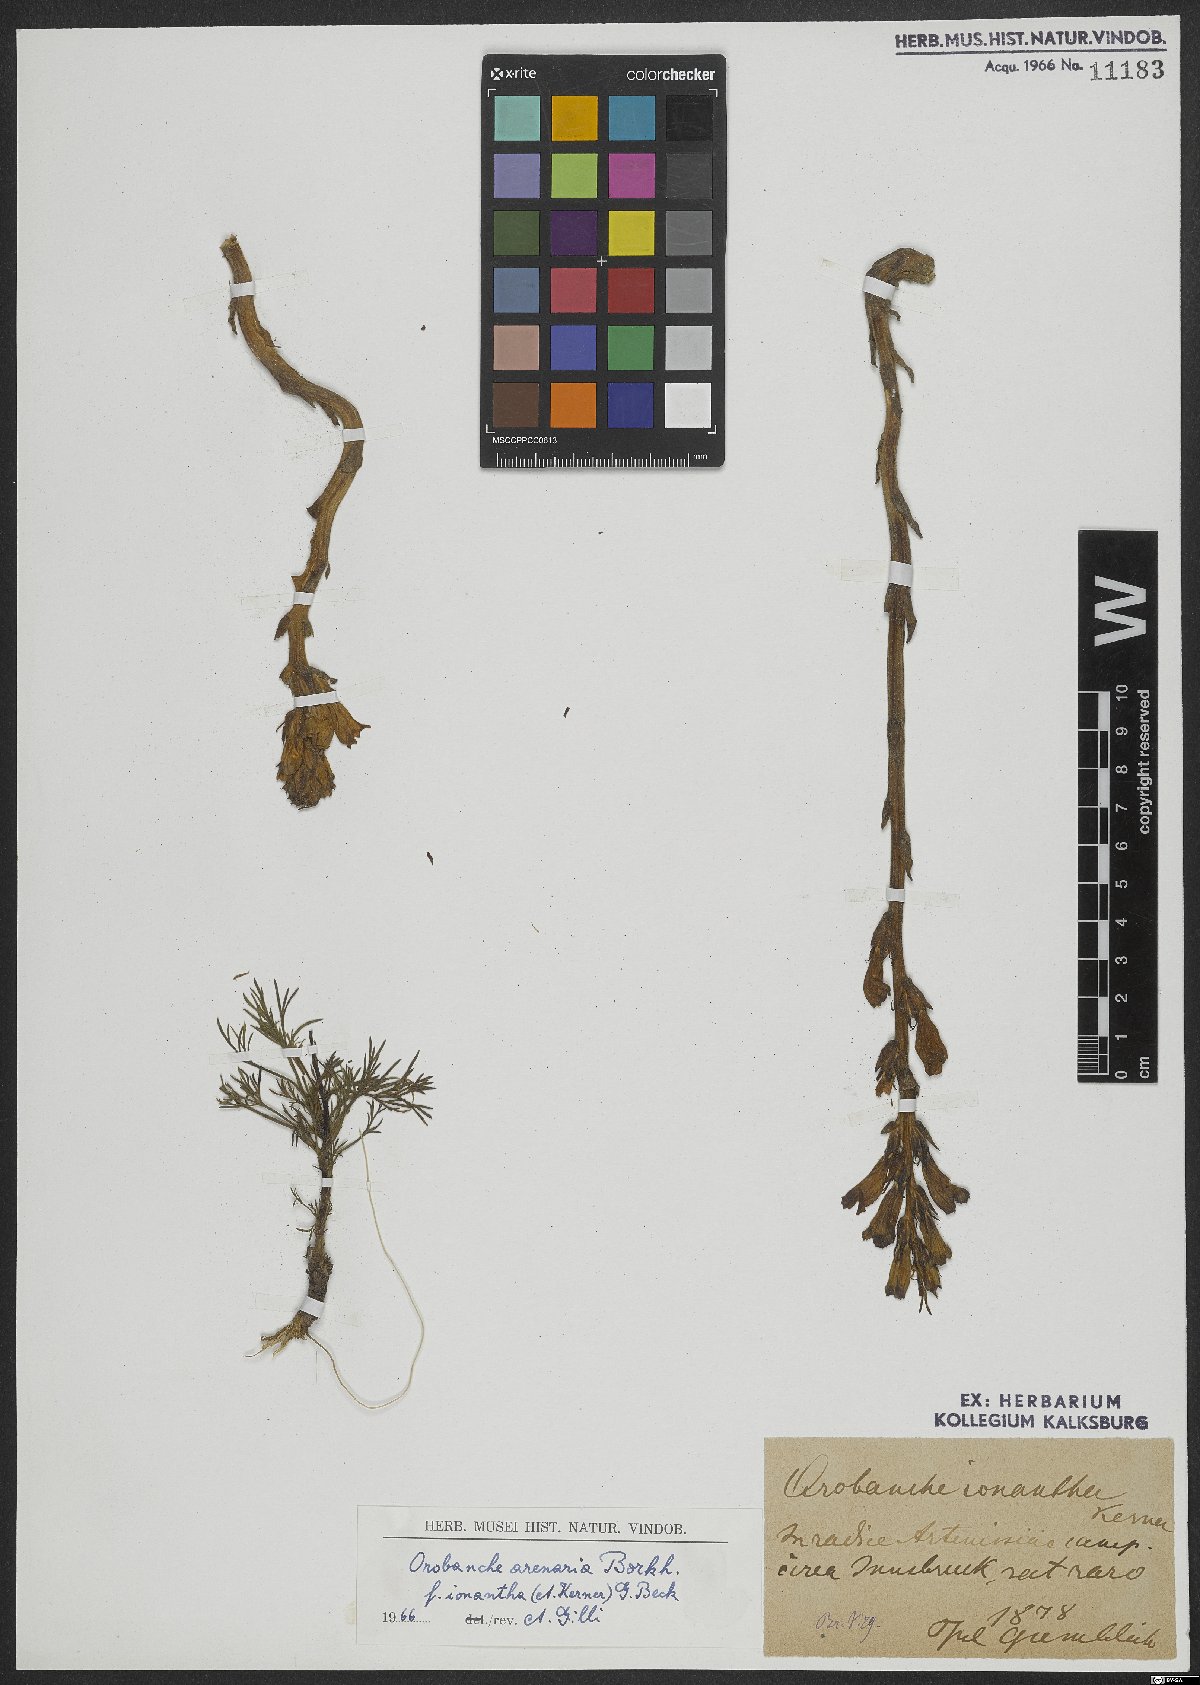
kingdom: Plantae
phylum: Tracheophyta
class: Magnoliopsida
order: Lamiales
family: Orobanchaceae
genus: Phelipanche
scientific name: Phelipanche arenaria
